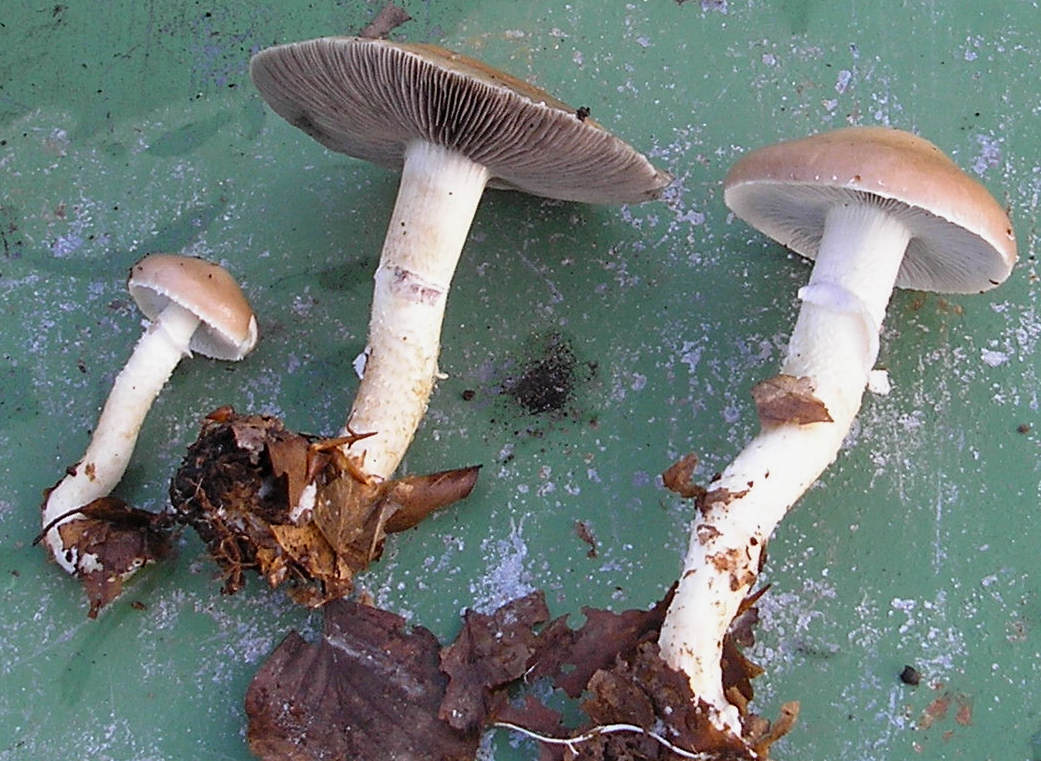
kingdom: Fungi
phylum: Basidiomycota
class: Agaricomycetes
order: Agaricales
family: Strophariaceae
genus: Stropharia
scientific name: Stropharia hornemannii
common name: nordisk bredblad
